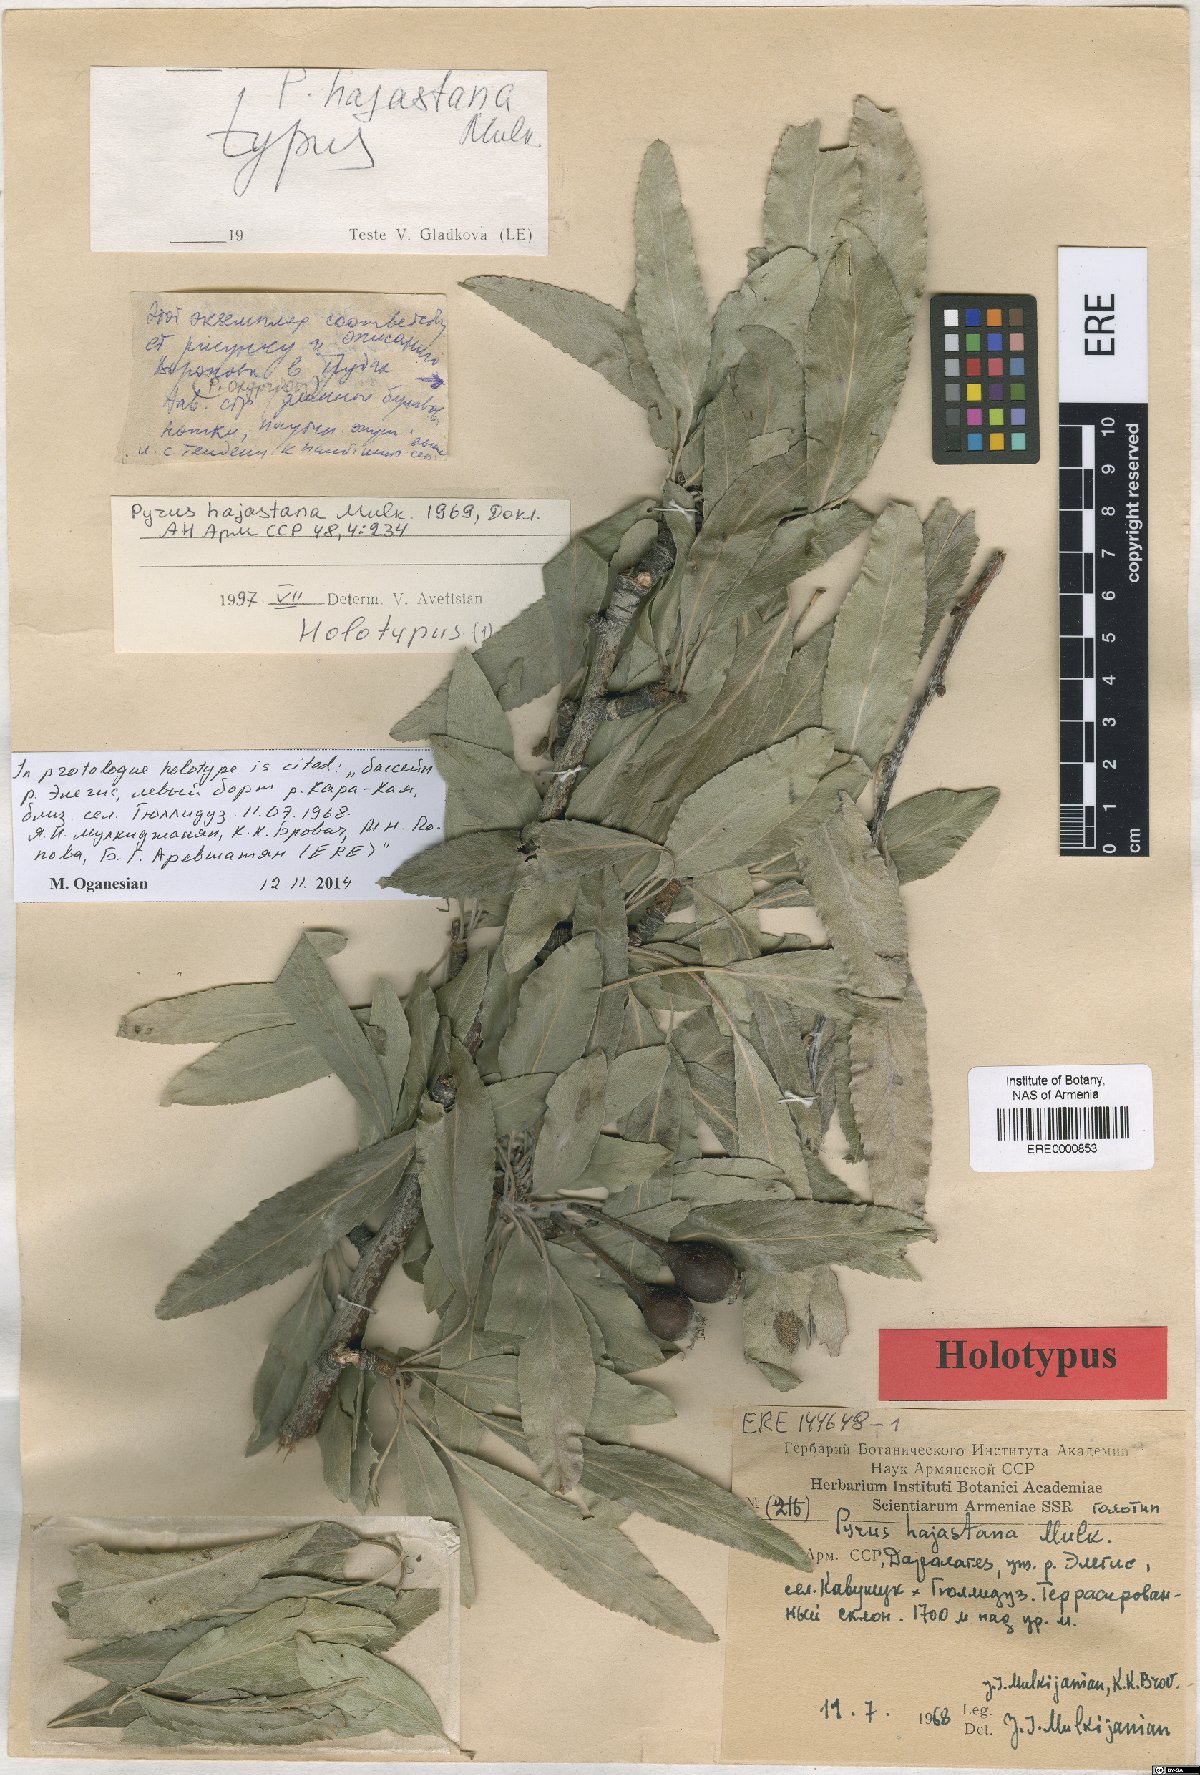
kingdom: Plantae
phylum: Tracheophyta
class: Magnoliopsida
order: Rosales
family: Rosaceae
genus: Pyrus
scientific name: Pyrus hajastana
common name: Hayastanyan pear
